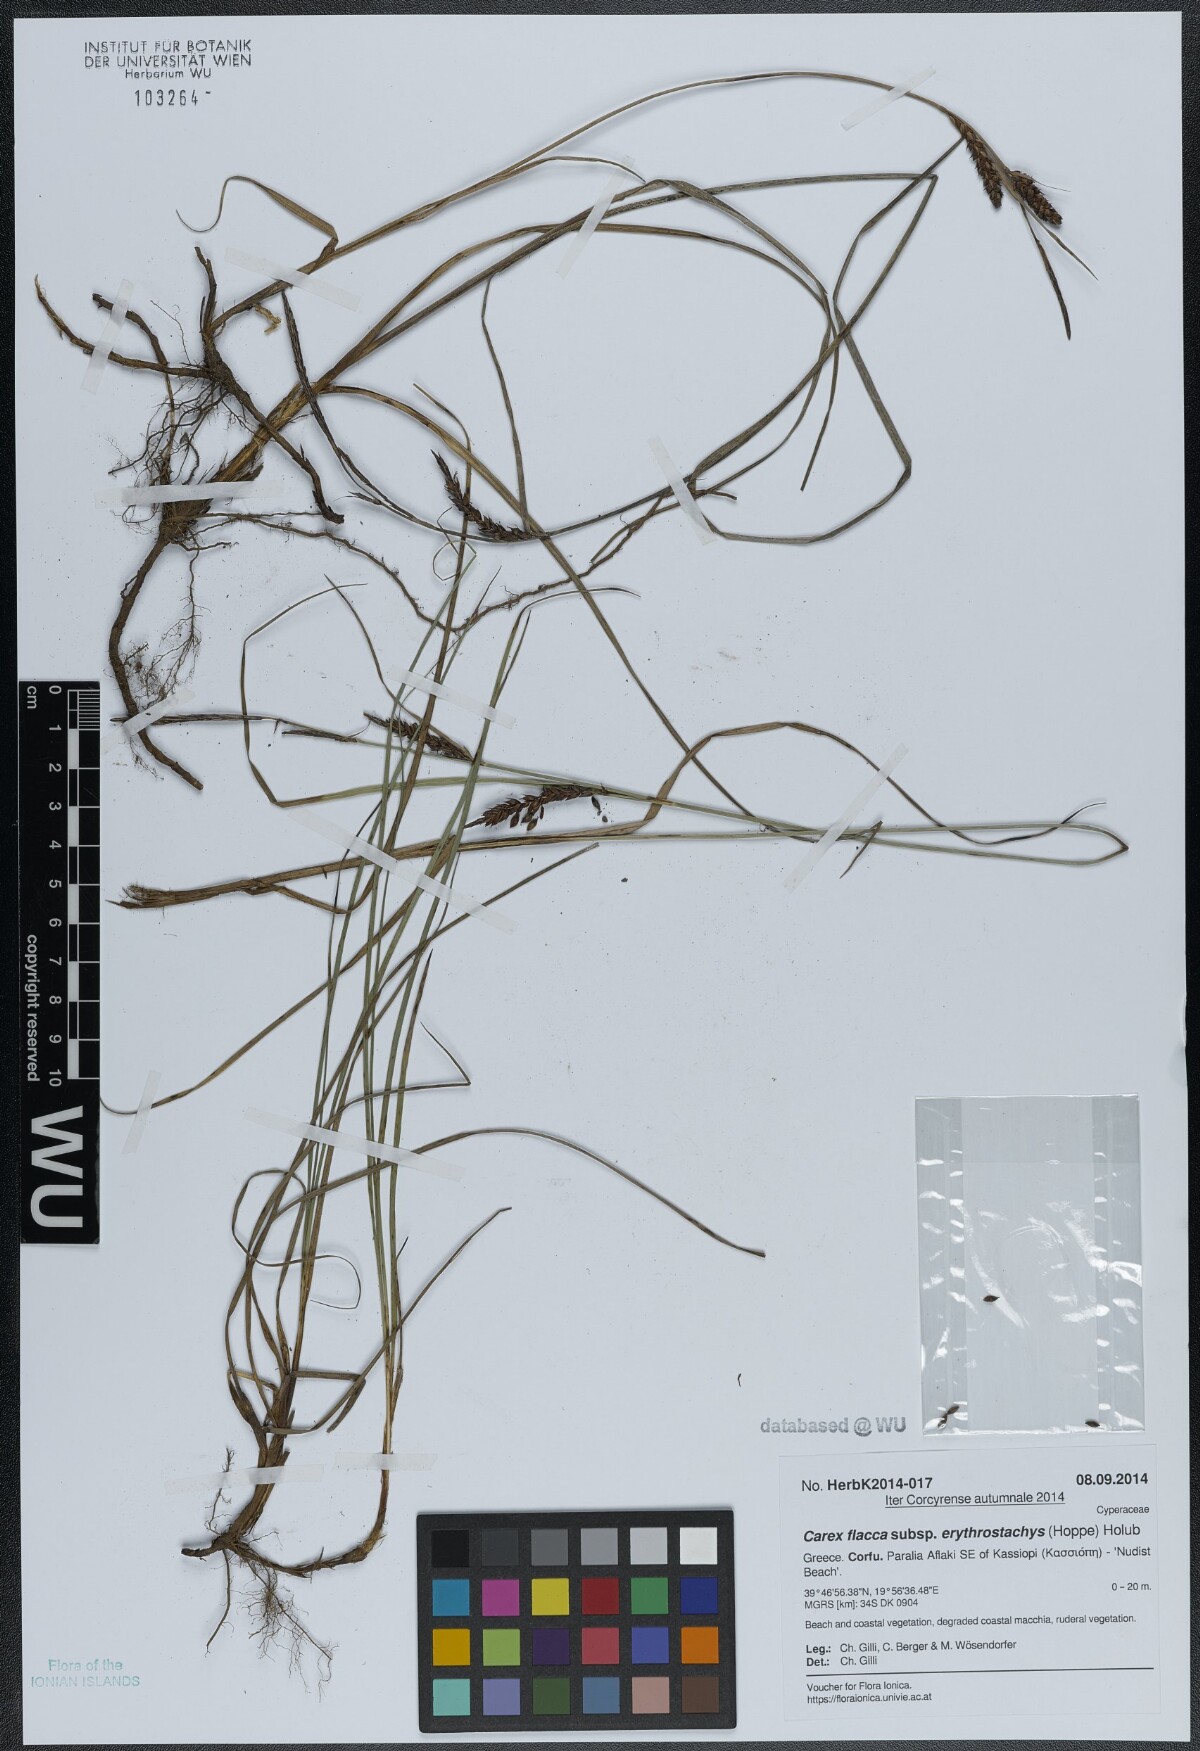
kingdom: Plantae
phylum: Tracheophyta
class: Liliopsida
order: Poales
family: Cyperaceae
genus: Carex
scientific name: Carex flacca
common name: Glaucous sedge
